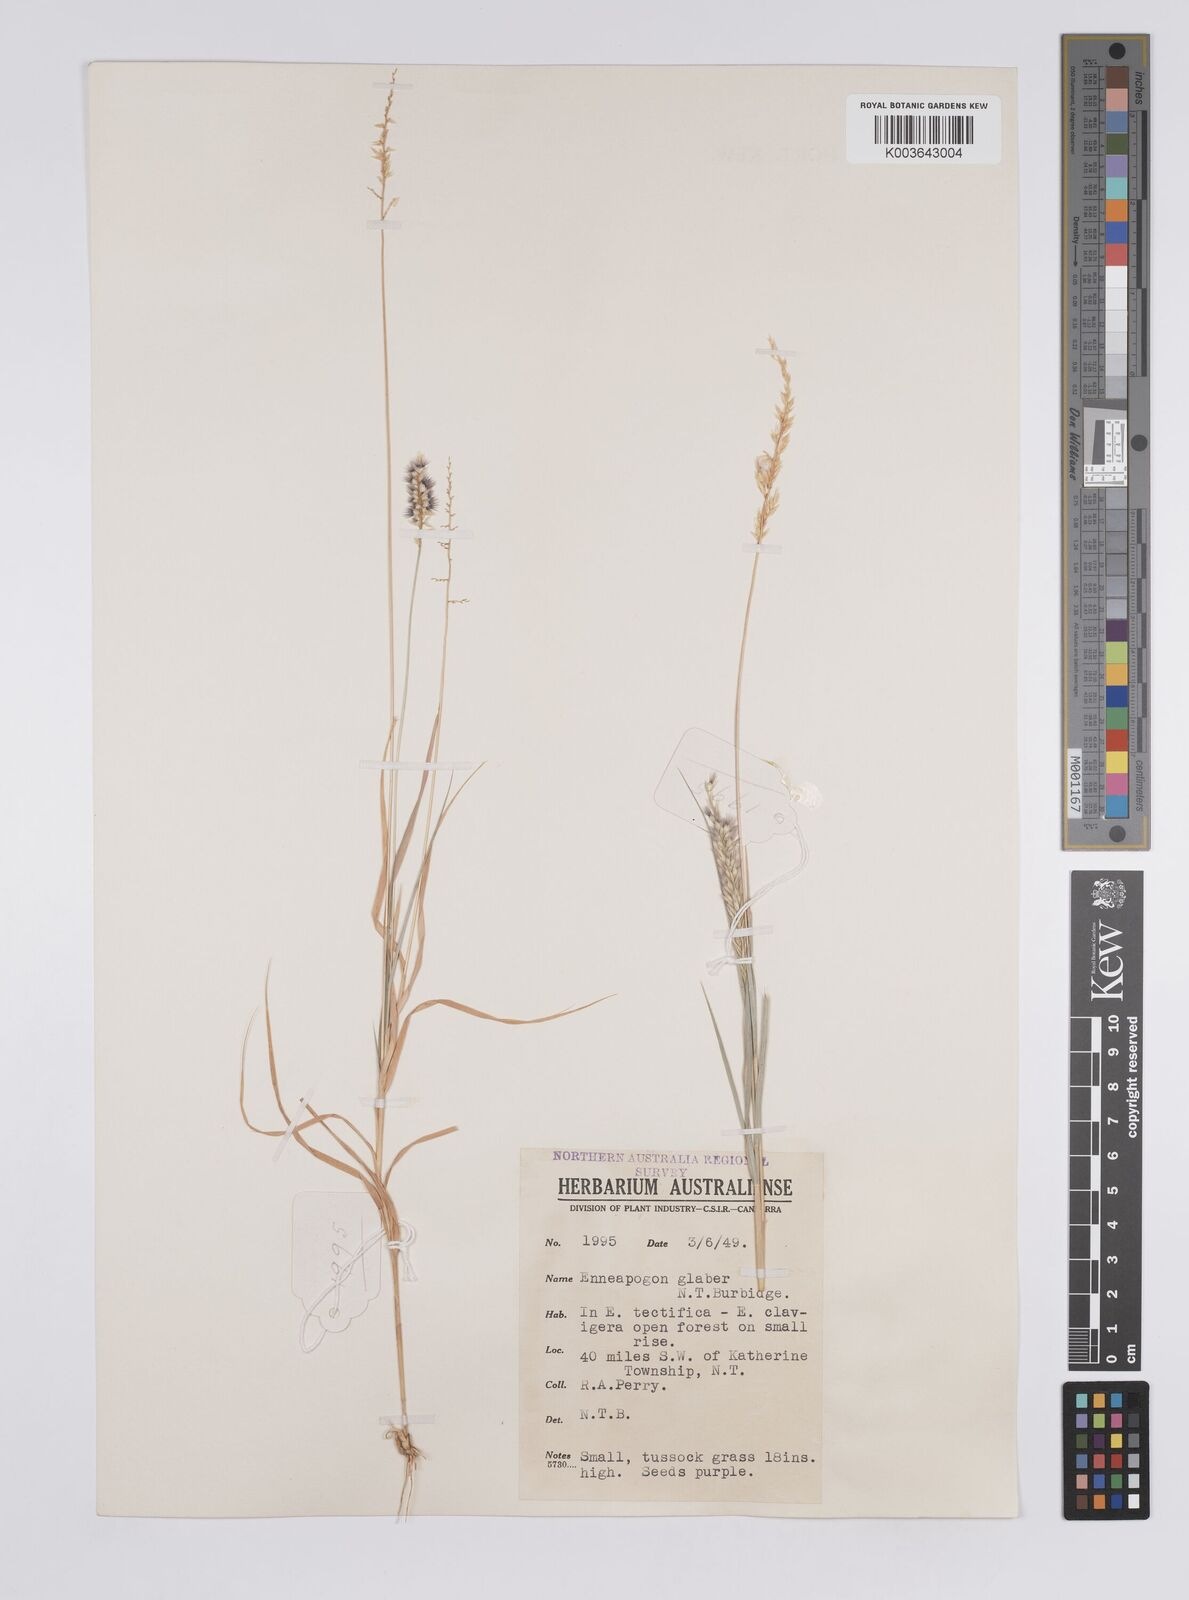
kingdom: Plantae
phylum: Tracheophyta
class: Liliopsida
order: Poales
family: Poaceae
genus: Enneapogon
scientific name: Enneapogon purpurascens
